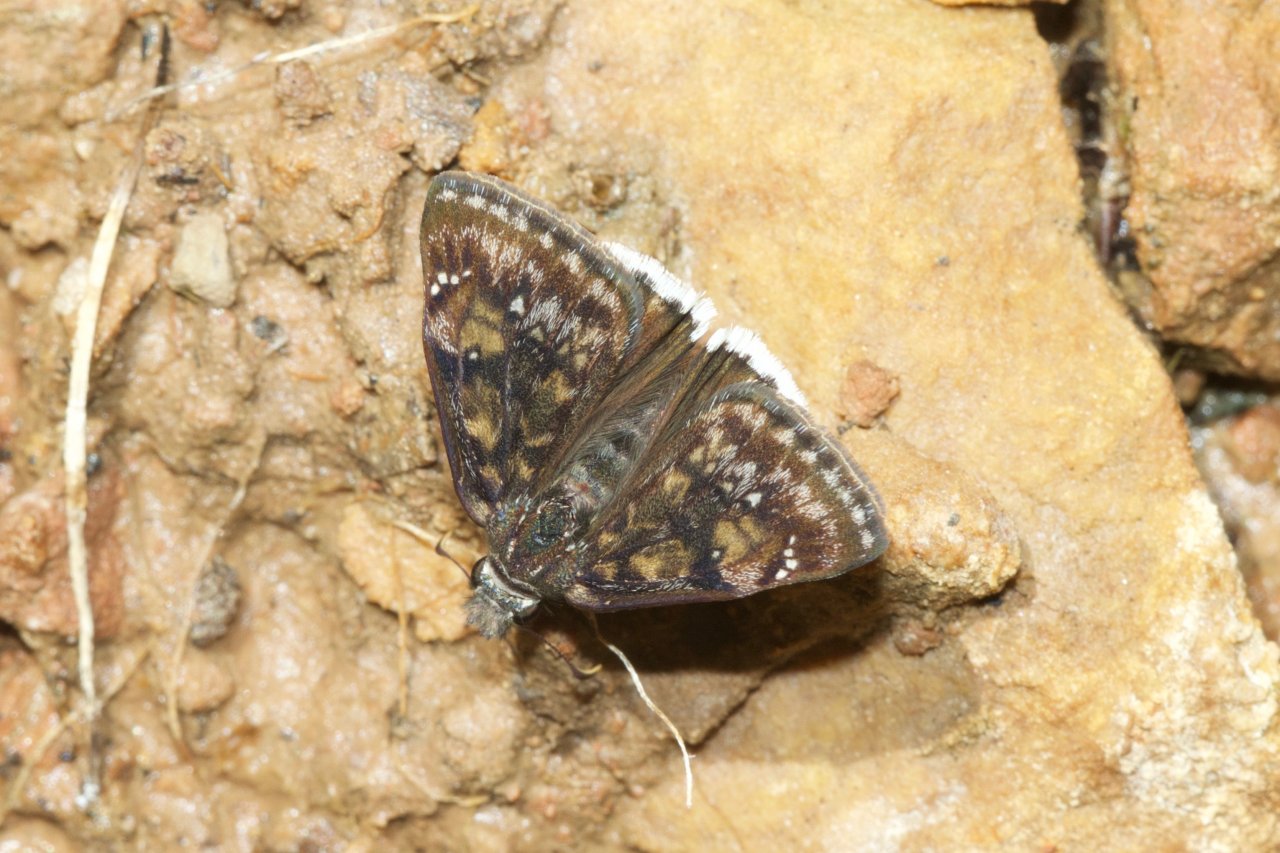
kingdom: Animalia
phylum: Arthropoda
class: Insecta
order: Lepidoptera
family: Hesperiidae
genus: Erynnis
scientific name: Erynnis pacuvius
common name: Pacuvius Duskywing
